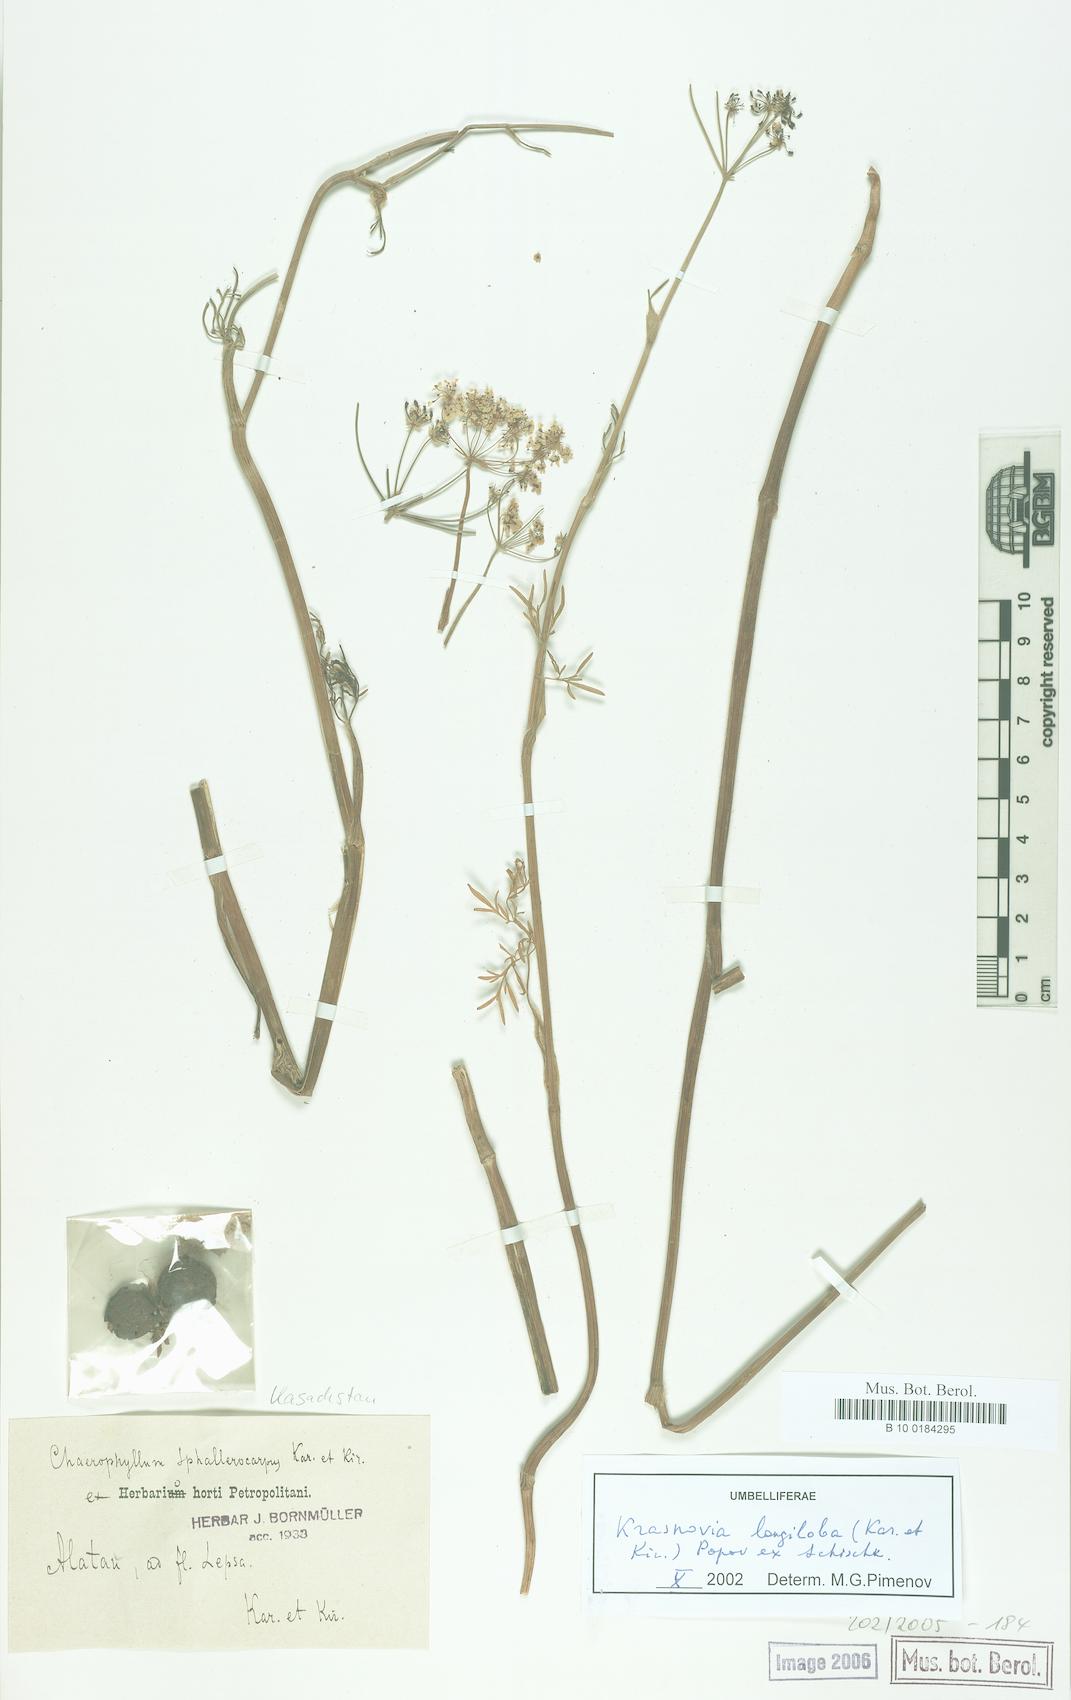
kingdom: Plantae
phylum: Tracheophyta
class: Magnoliopsida
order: Apiales
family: Apiaceae
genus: Kozlovia
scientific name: Kozlovia longiloba
